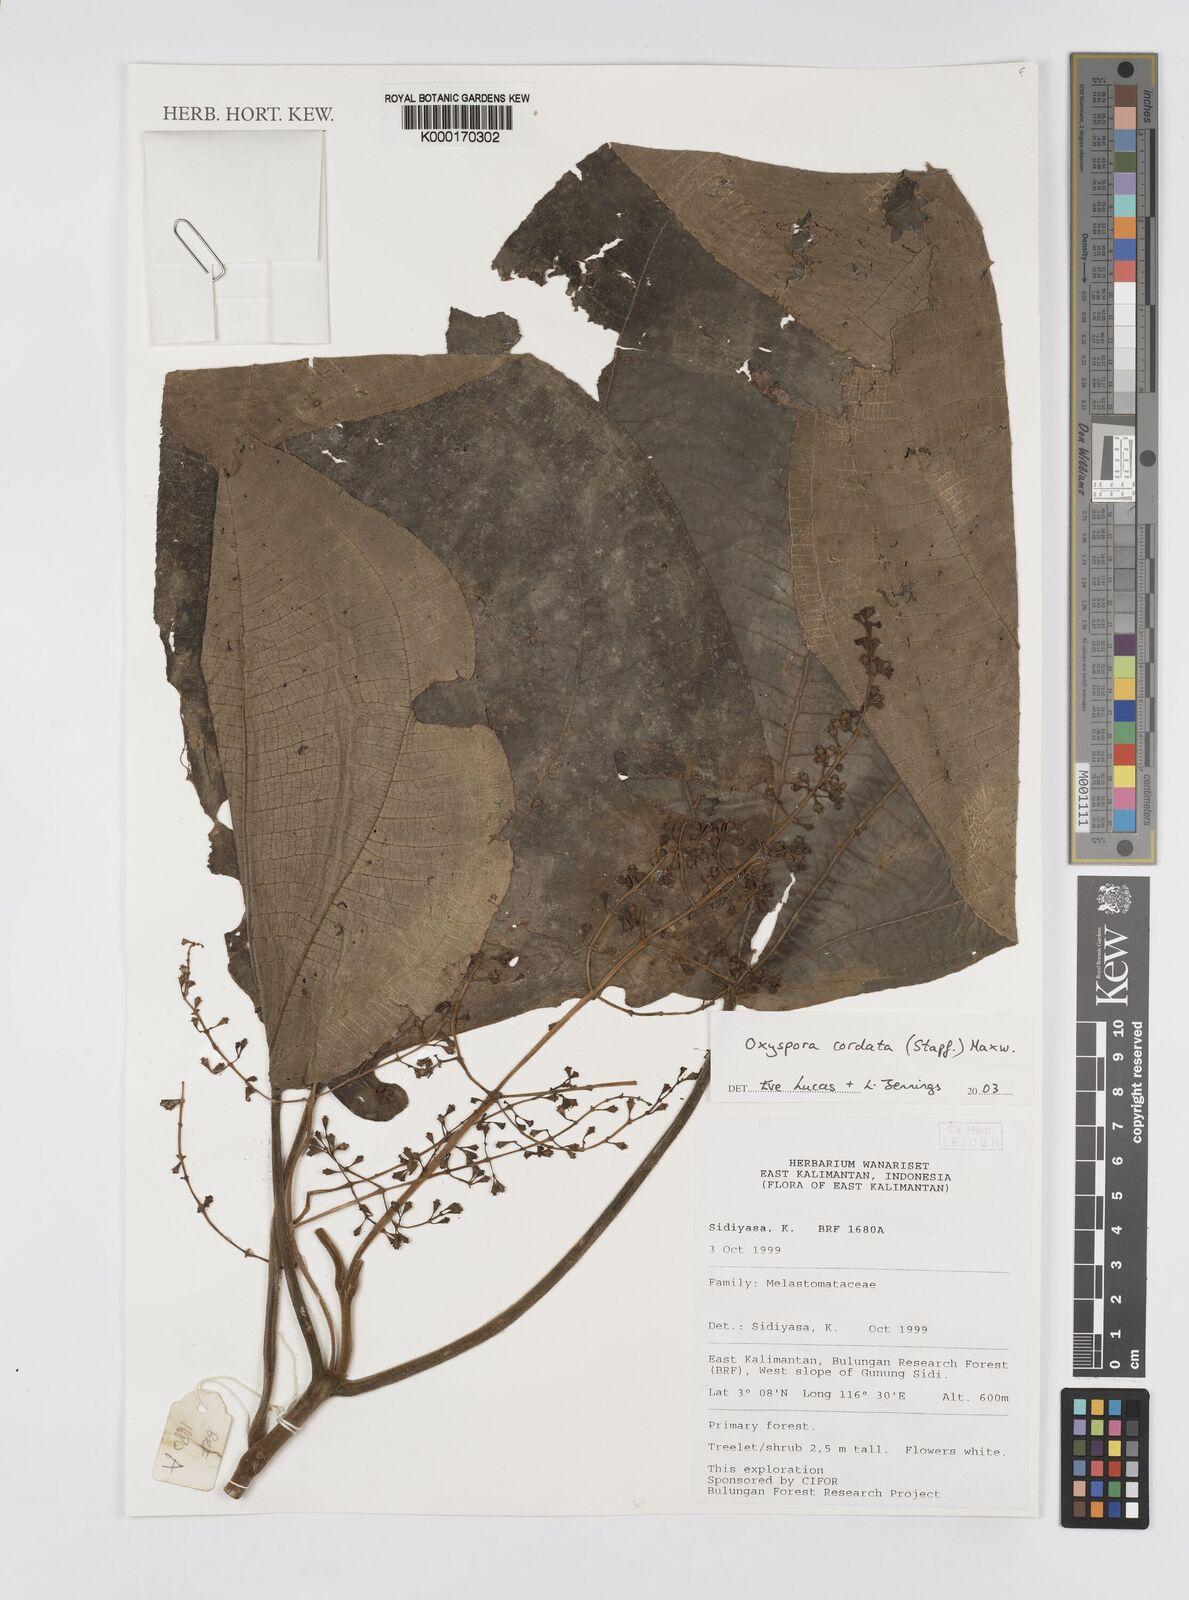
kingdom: Plantae
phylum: Tracheophyta
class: Magnoliopsida
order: Myrtales
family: Melastomataceae
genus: Anerincleistus
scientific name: Anerincleistus cordatus
